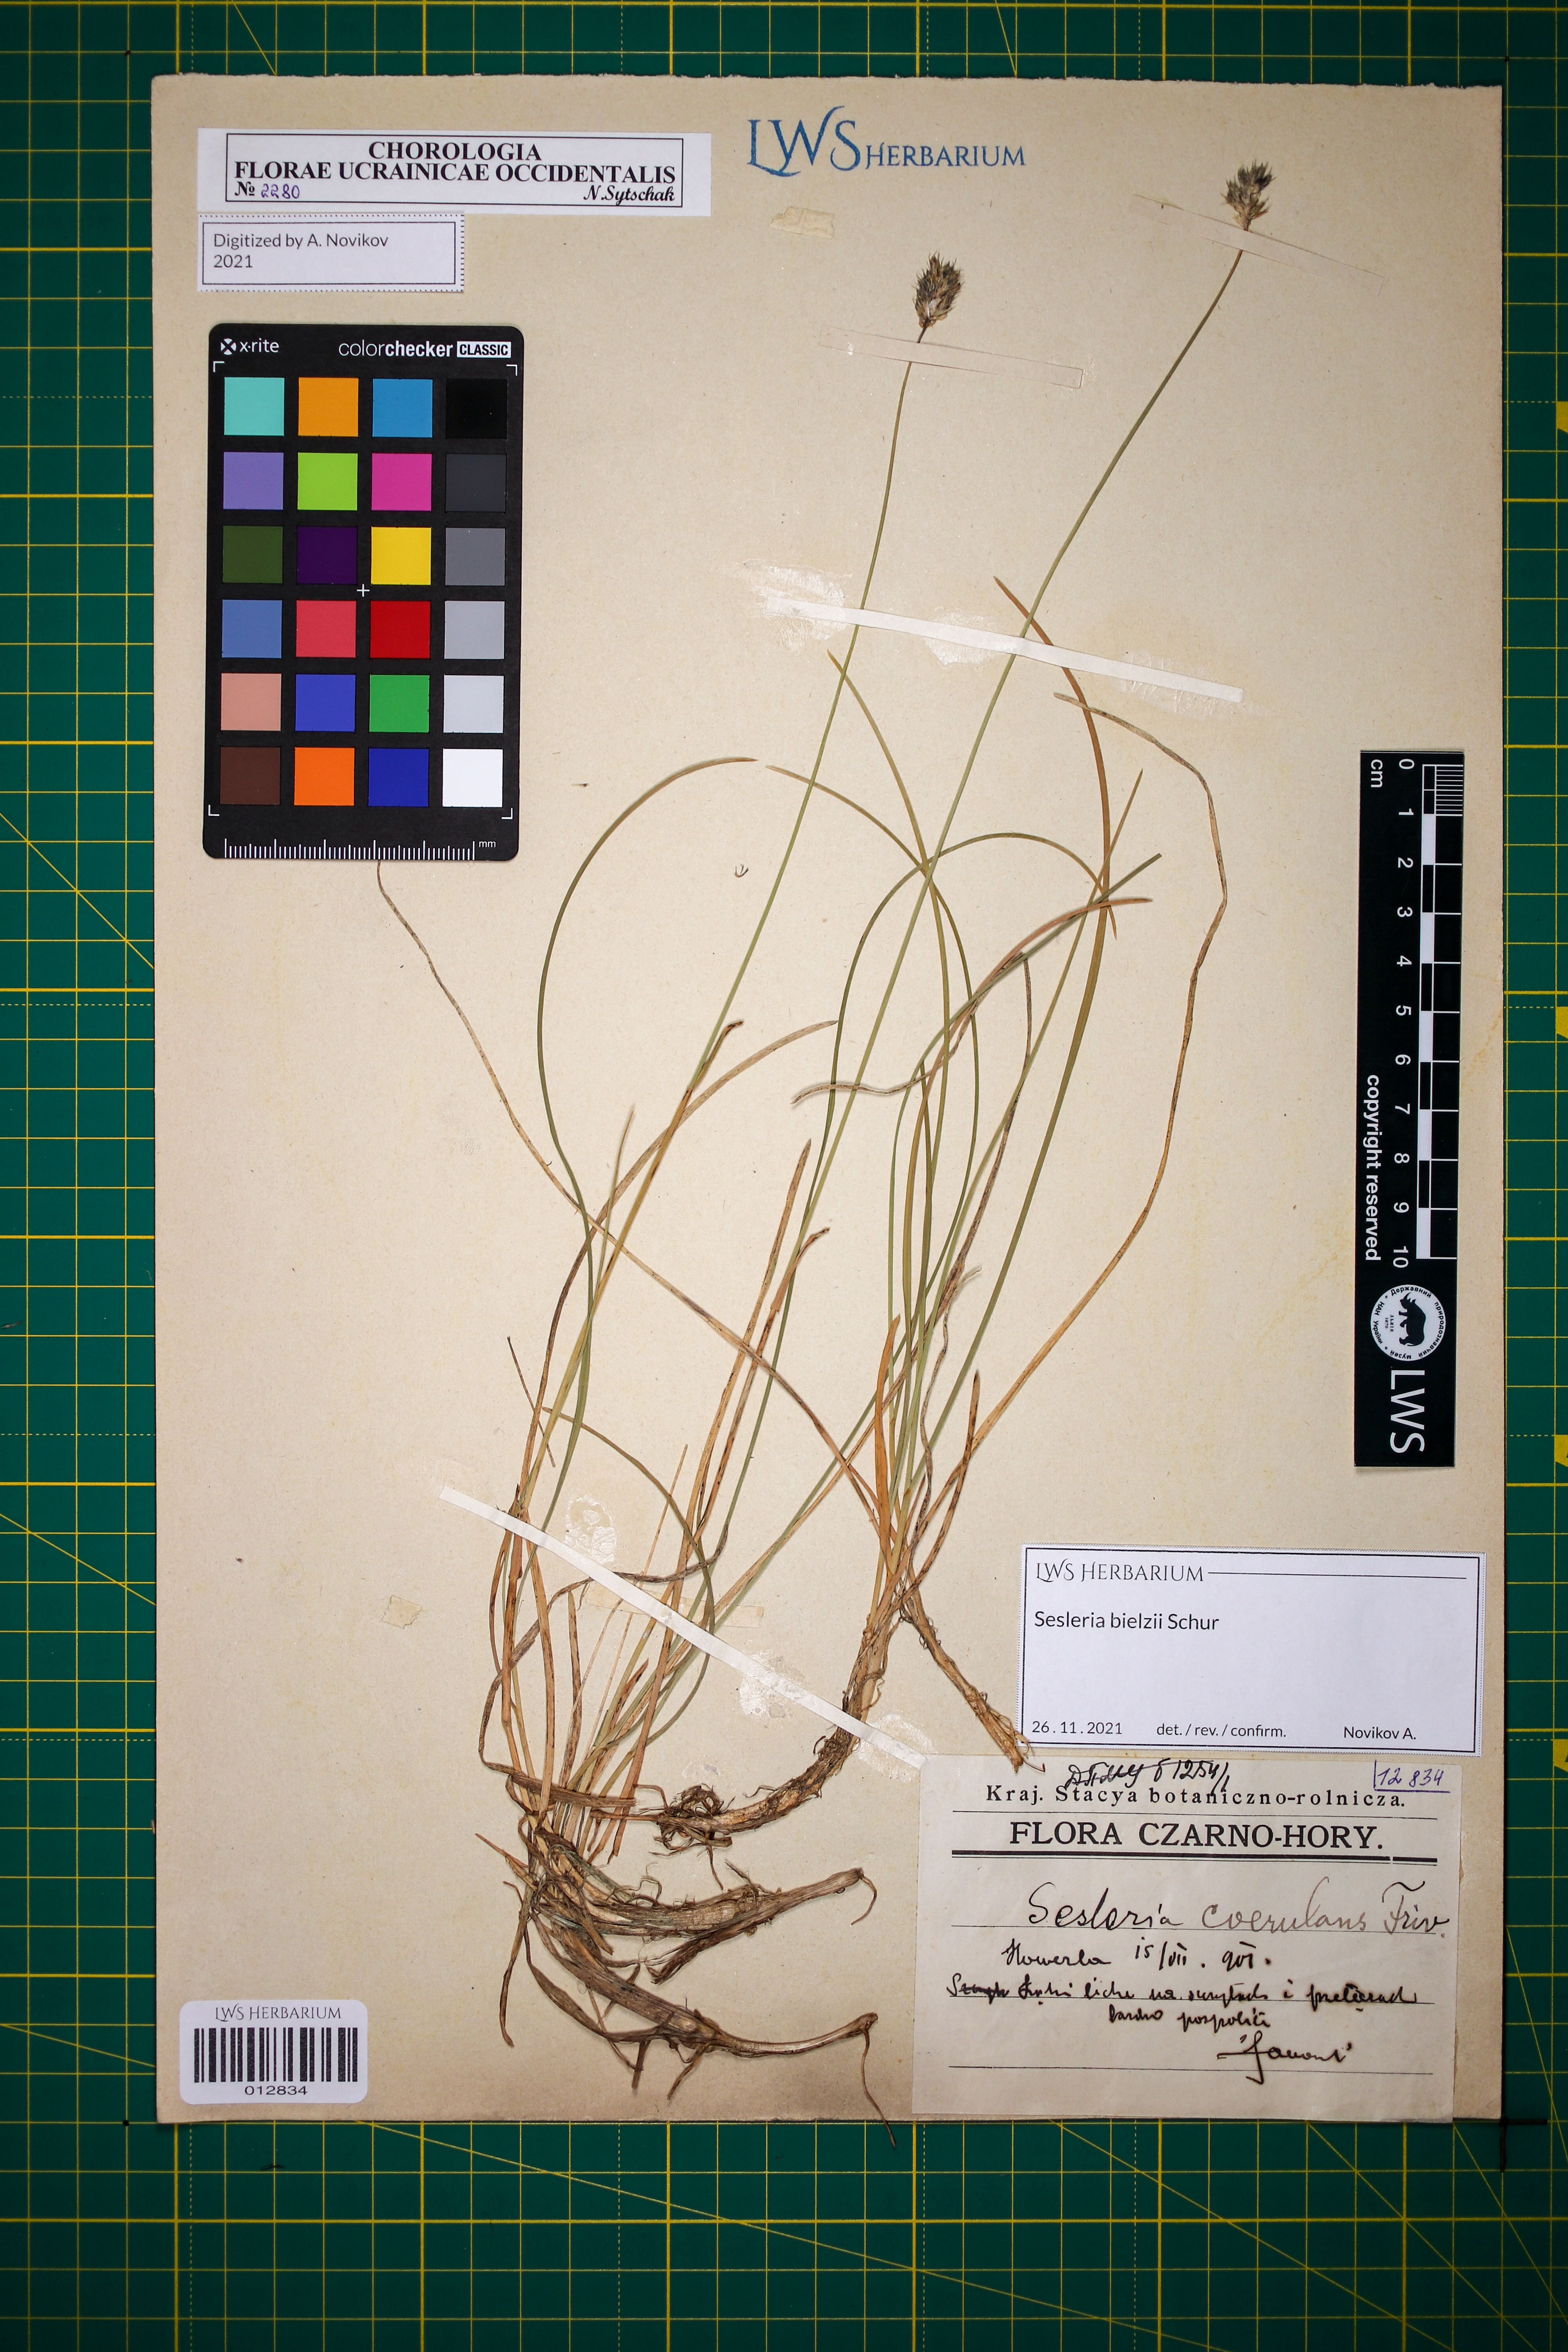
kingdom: Plantae
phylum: Tracheophyta
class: Liliopsida
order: Poales
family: Poaceae
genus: Sesleria
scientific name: Sesleria bielzii
